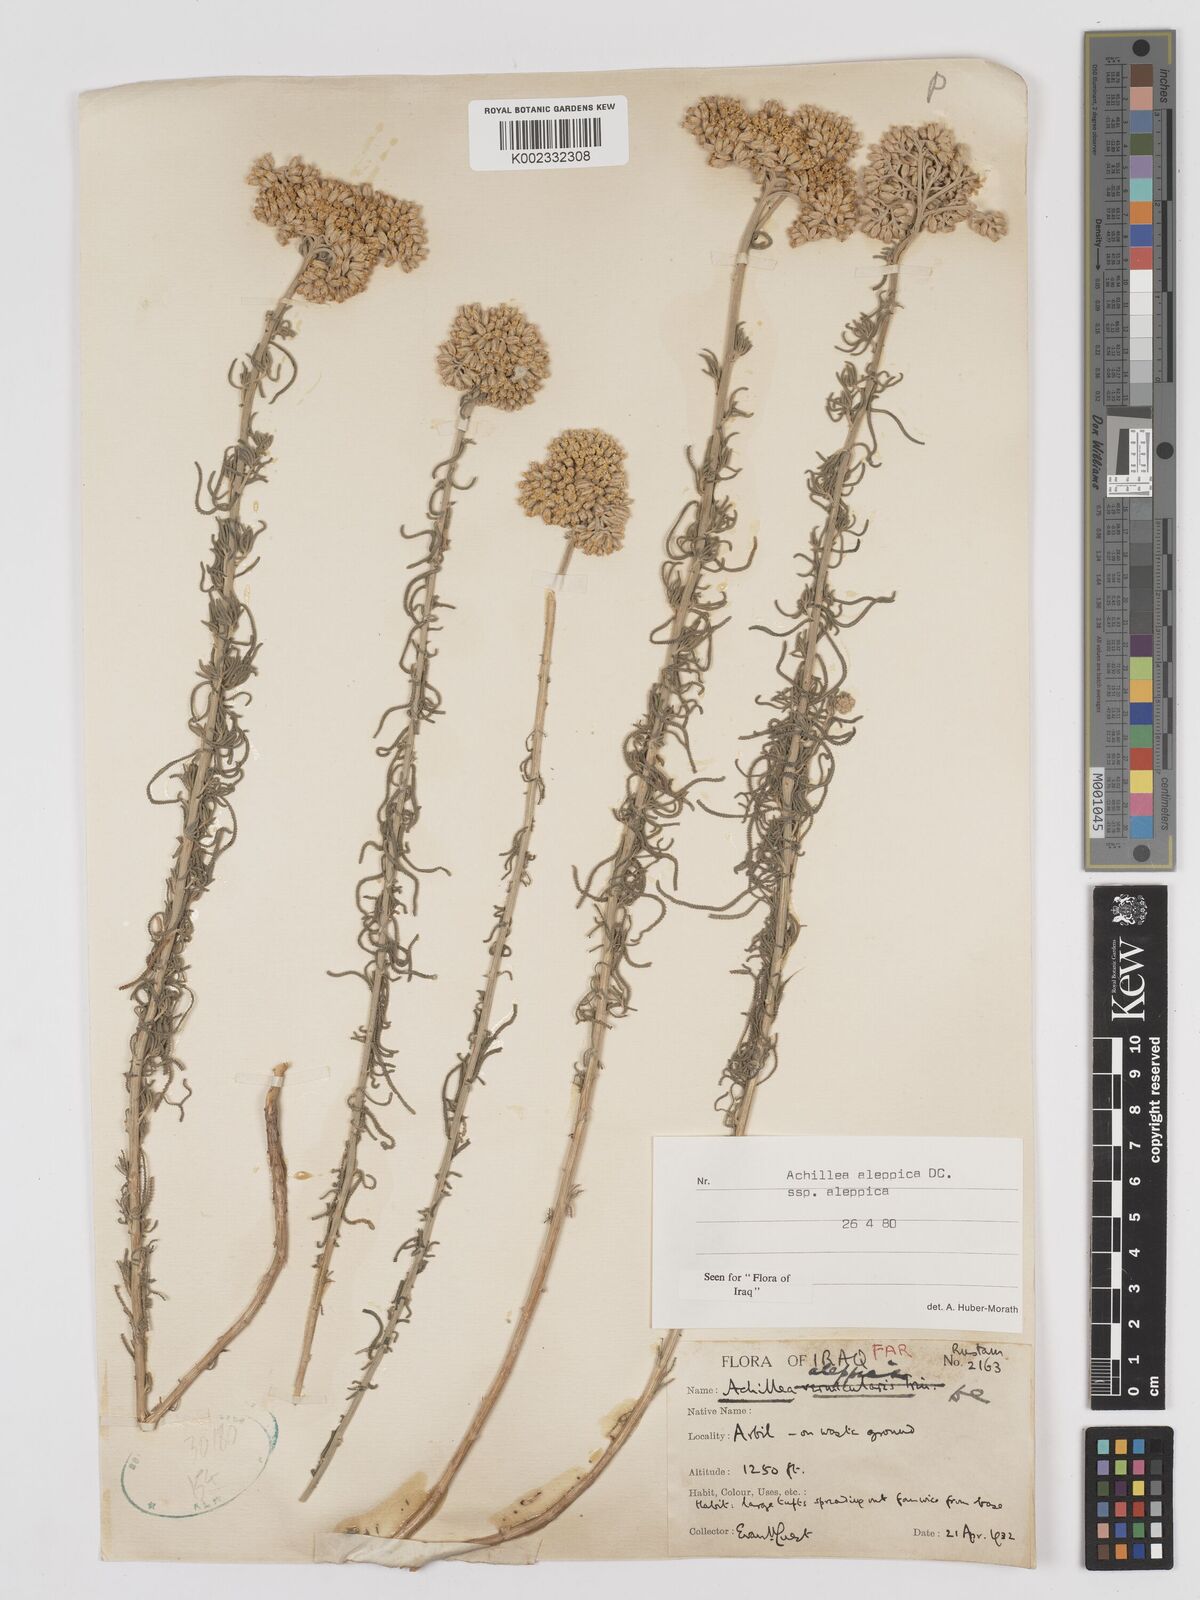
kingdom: Plantae
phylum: Tracheophyta
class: Magnoliopsida
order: Asterales
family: Asteraceae
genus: Achillea
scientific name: Achillea aleppica
